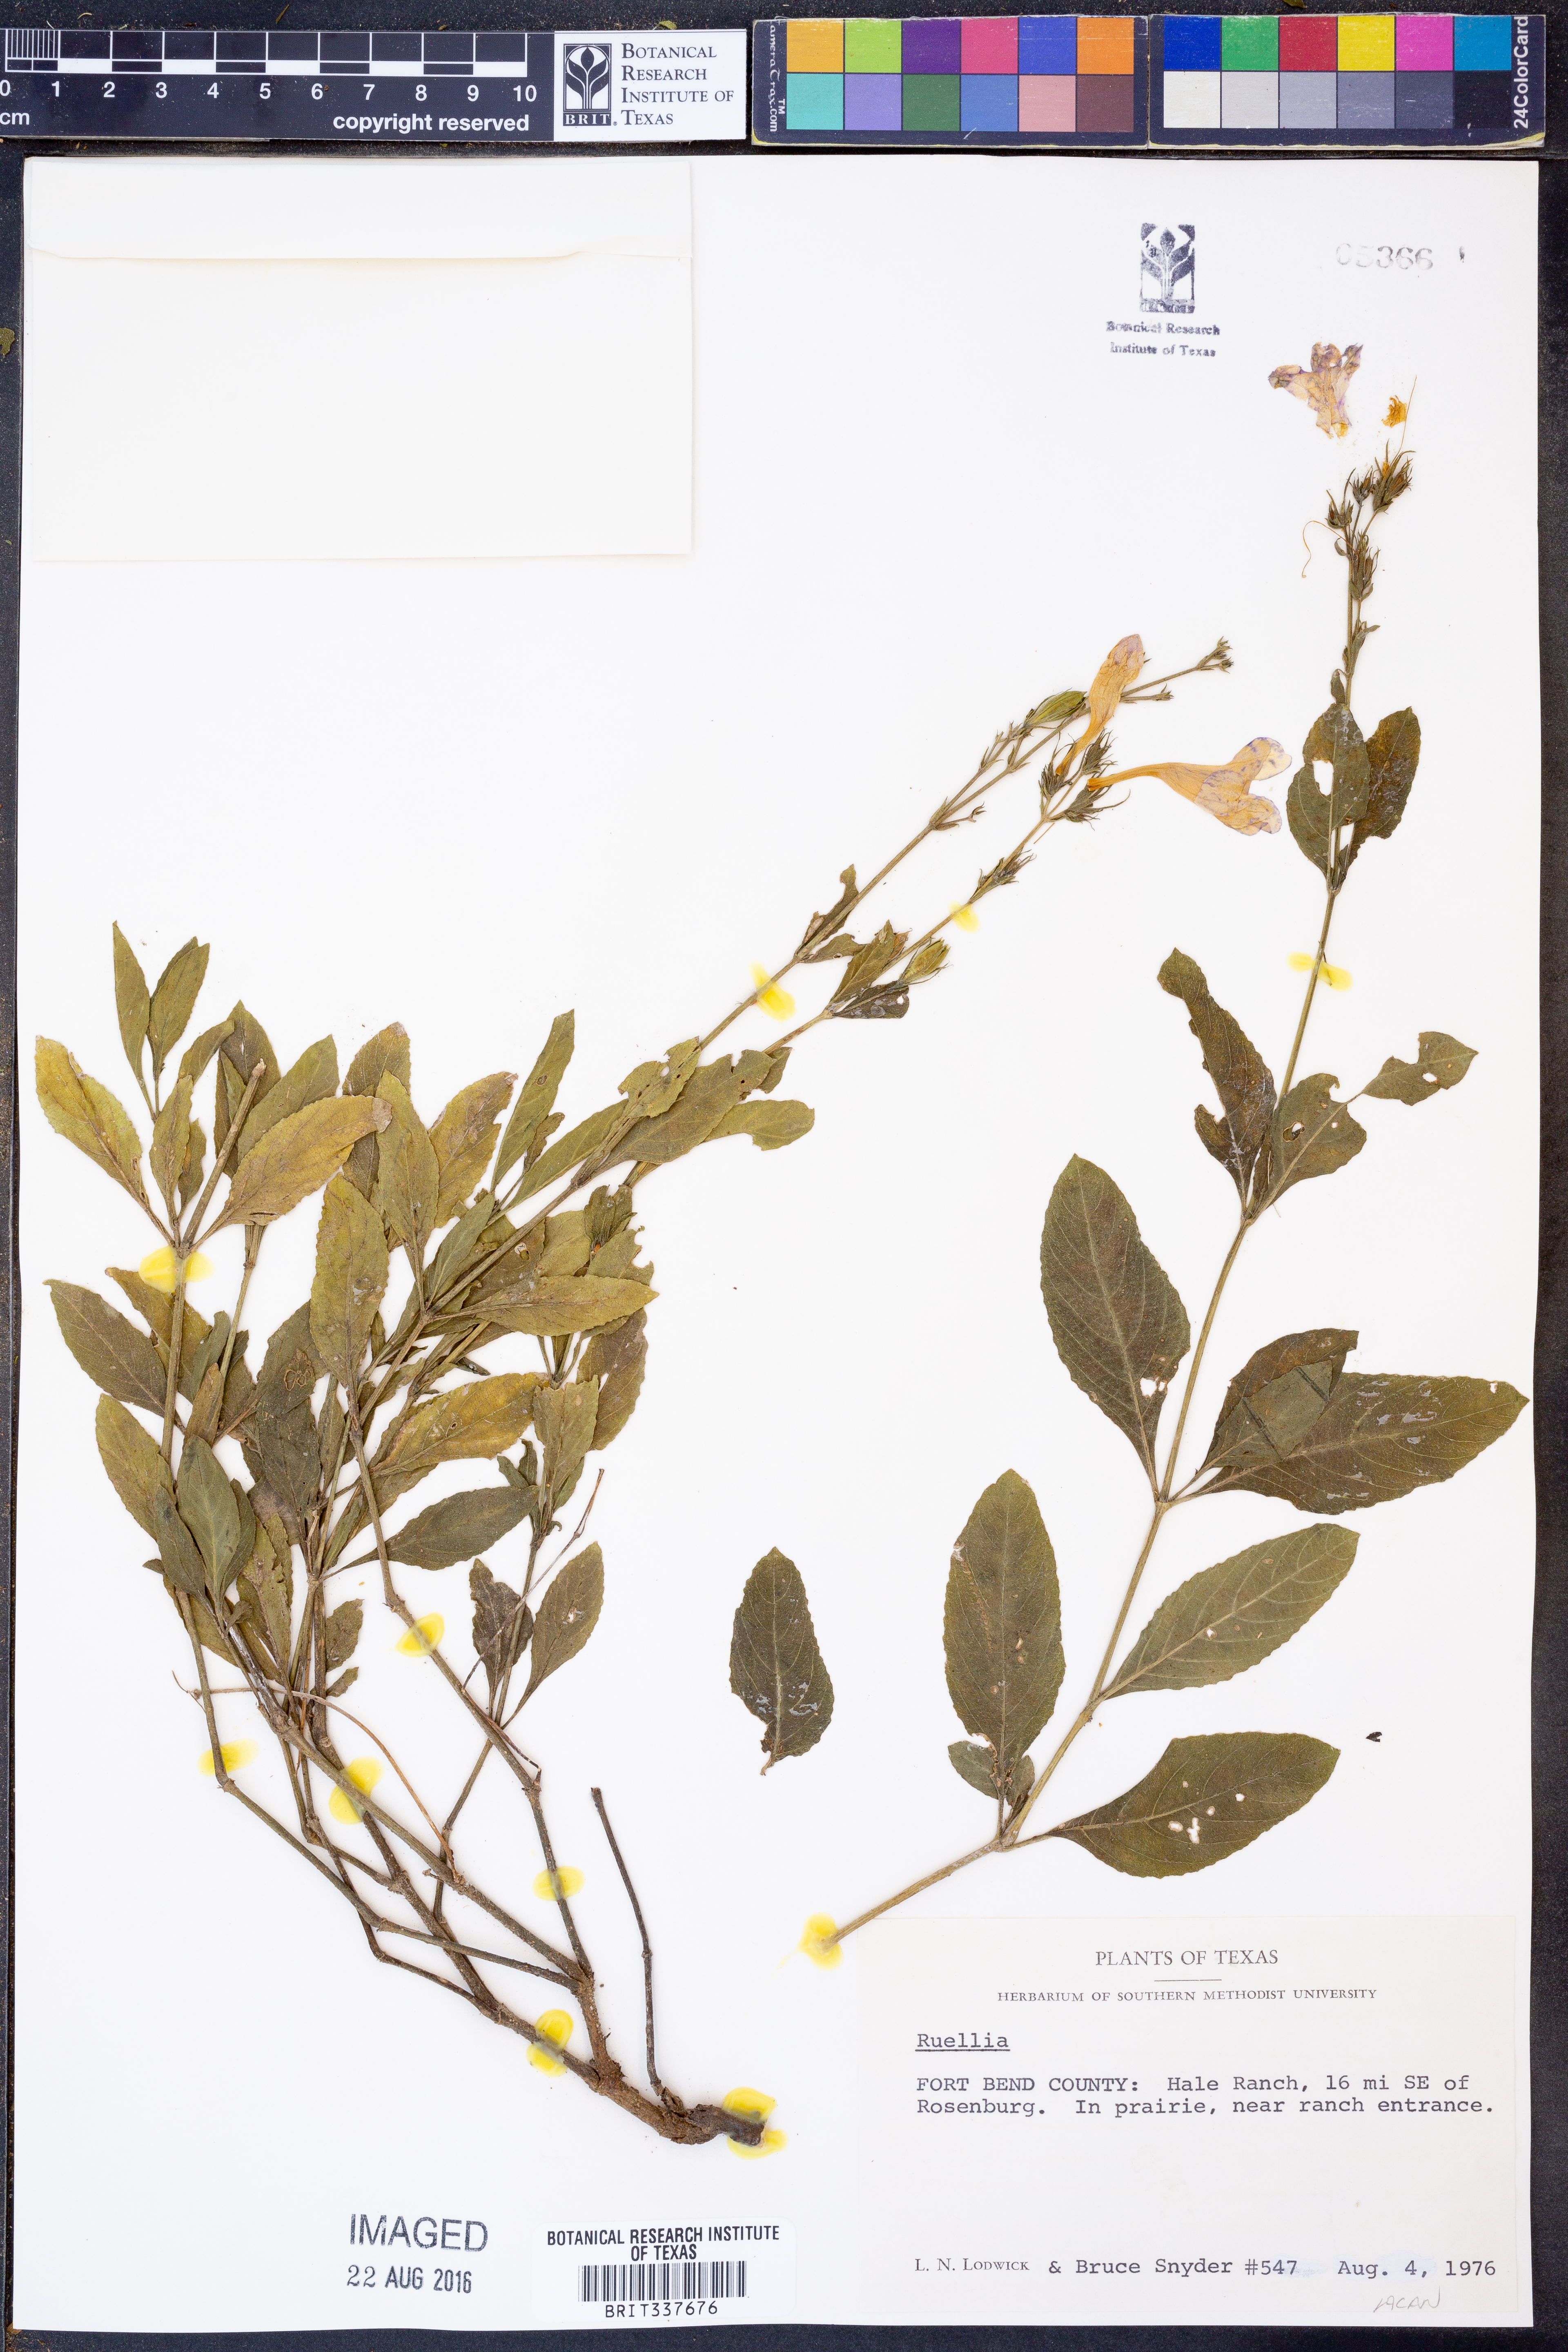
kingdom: Plantae
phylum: Tracheophyta
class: Magnoliopsida
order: Lamiales
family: Acanthaceae
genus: Ruellia
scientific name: Ruellia
